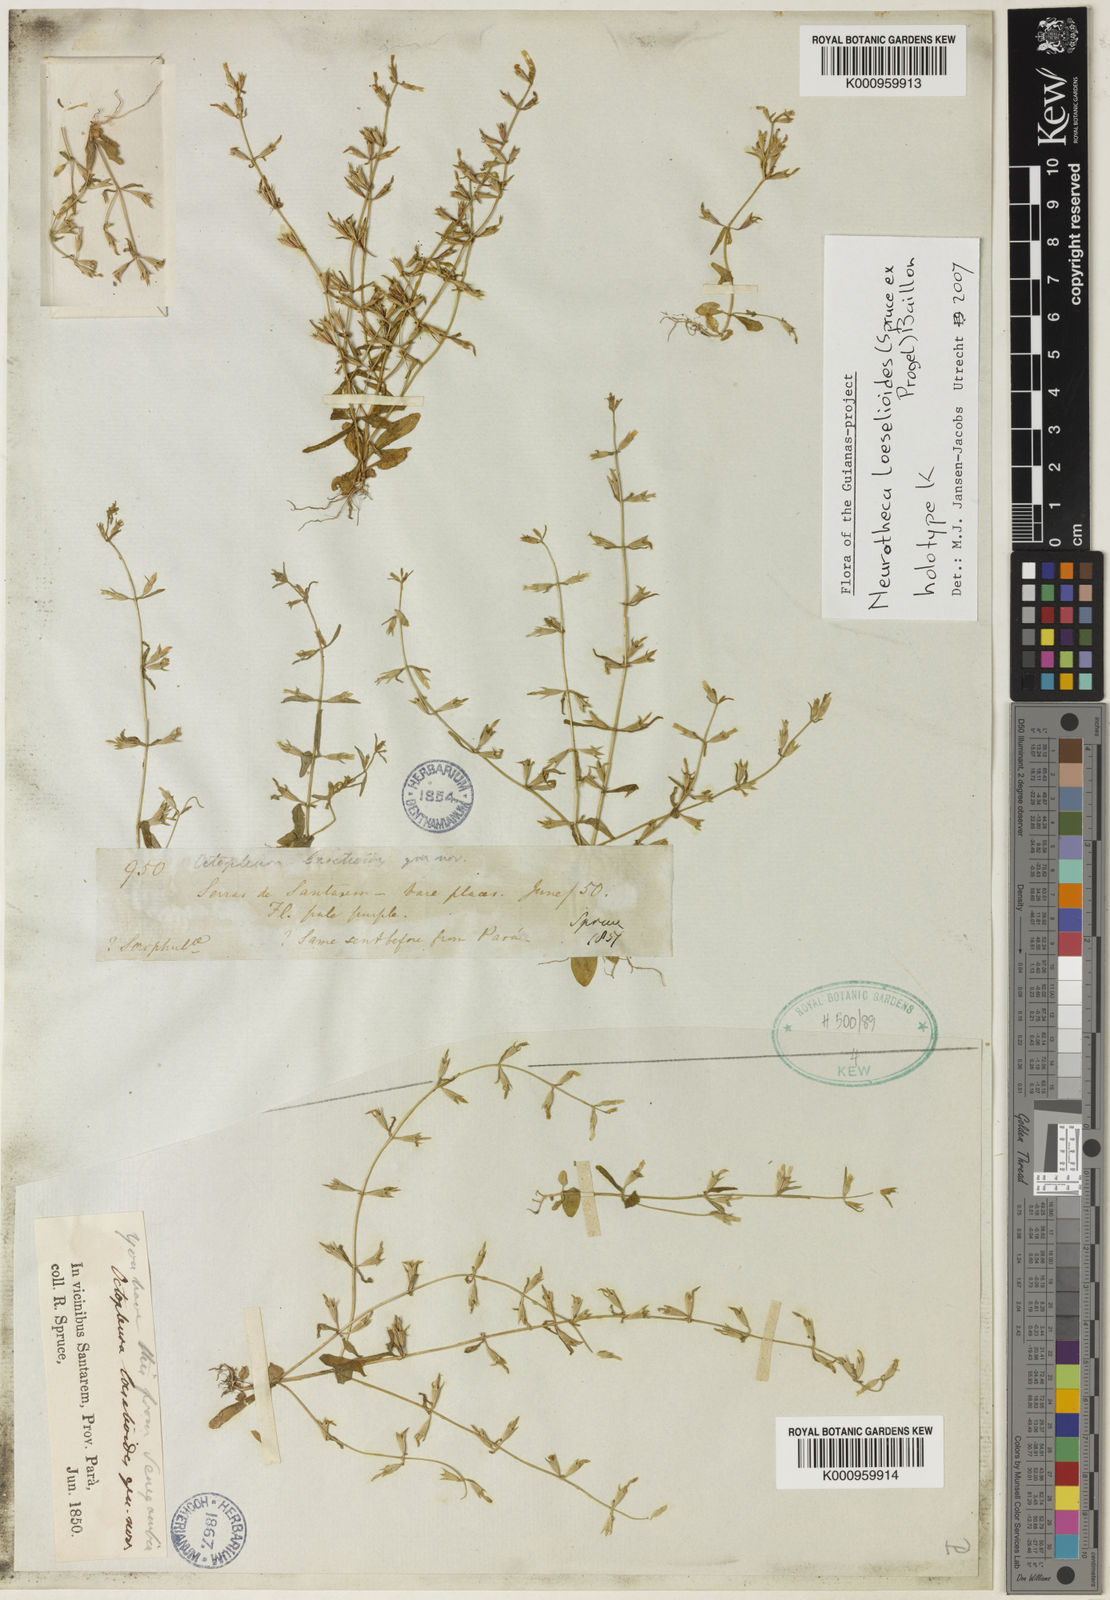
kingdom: Plantae
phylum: Tracheophyta
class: Magnoliopsida
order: Gentianales
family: Gentianaceae
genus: Neurotheca
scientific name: Neurotheca loeselioides
